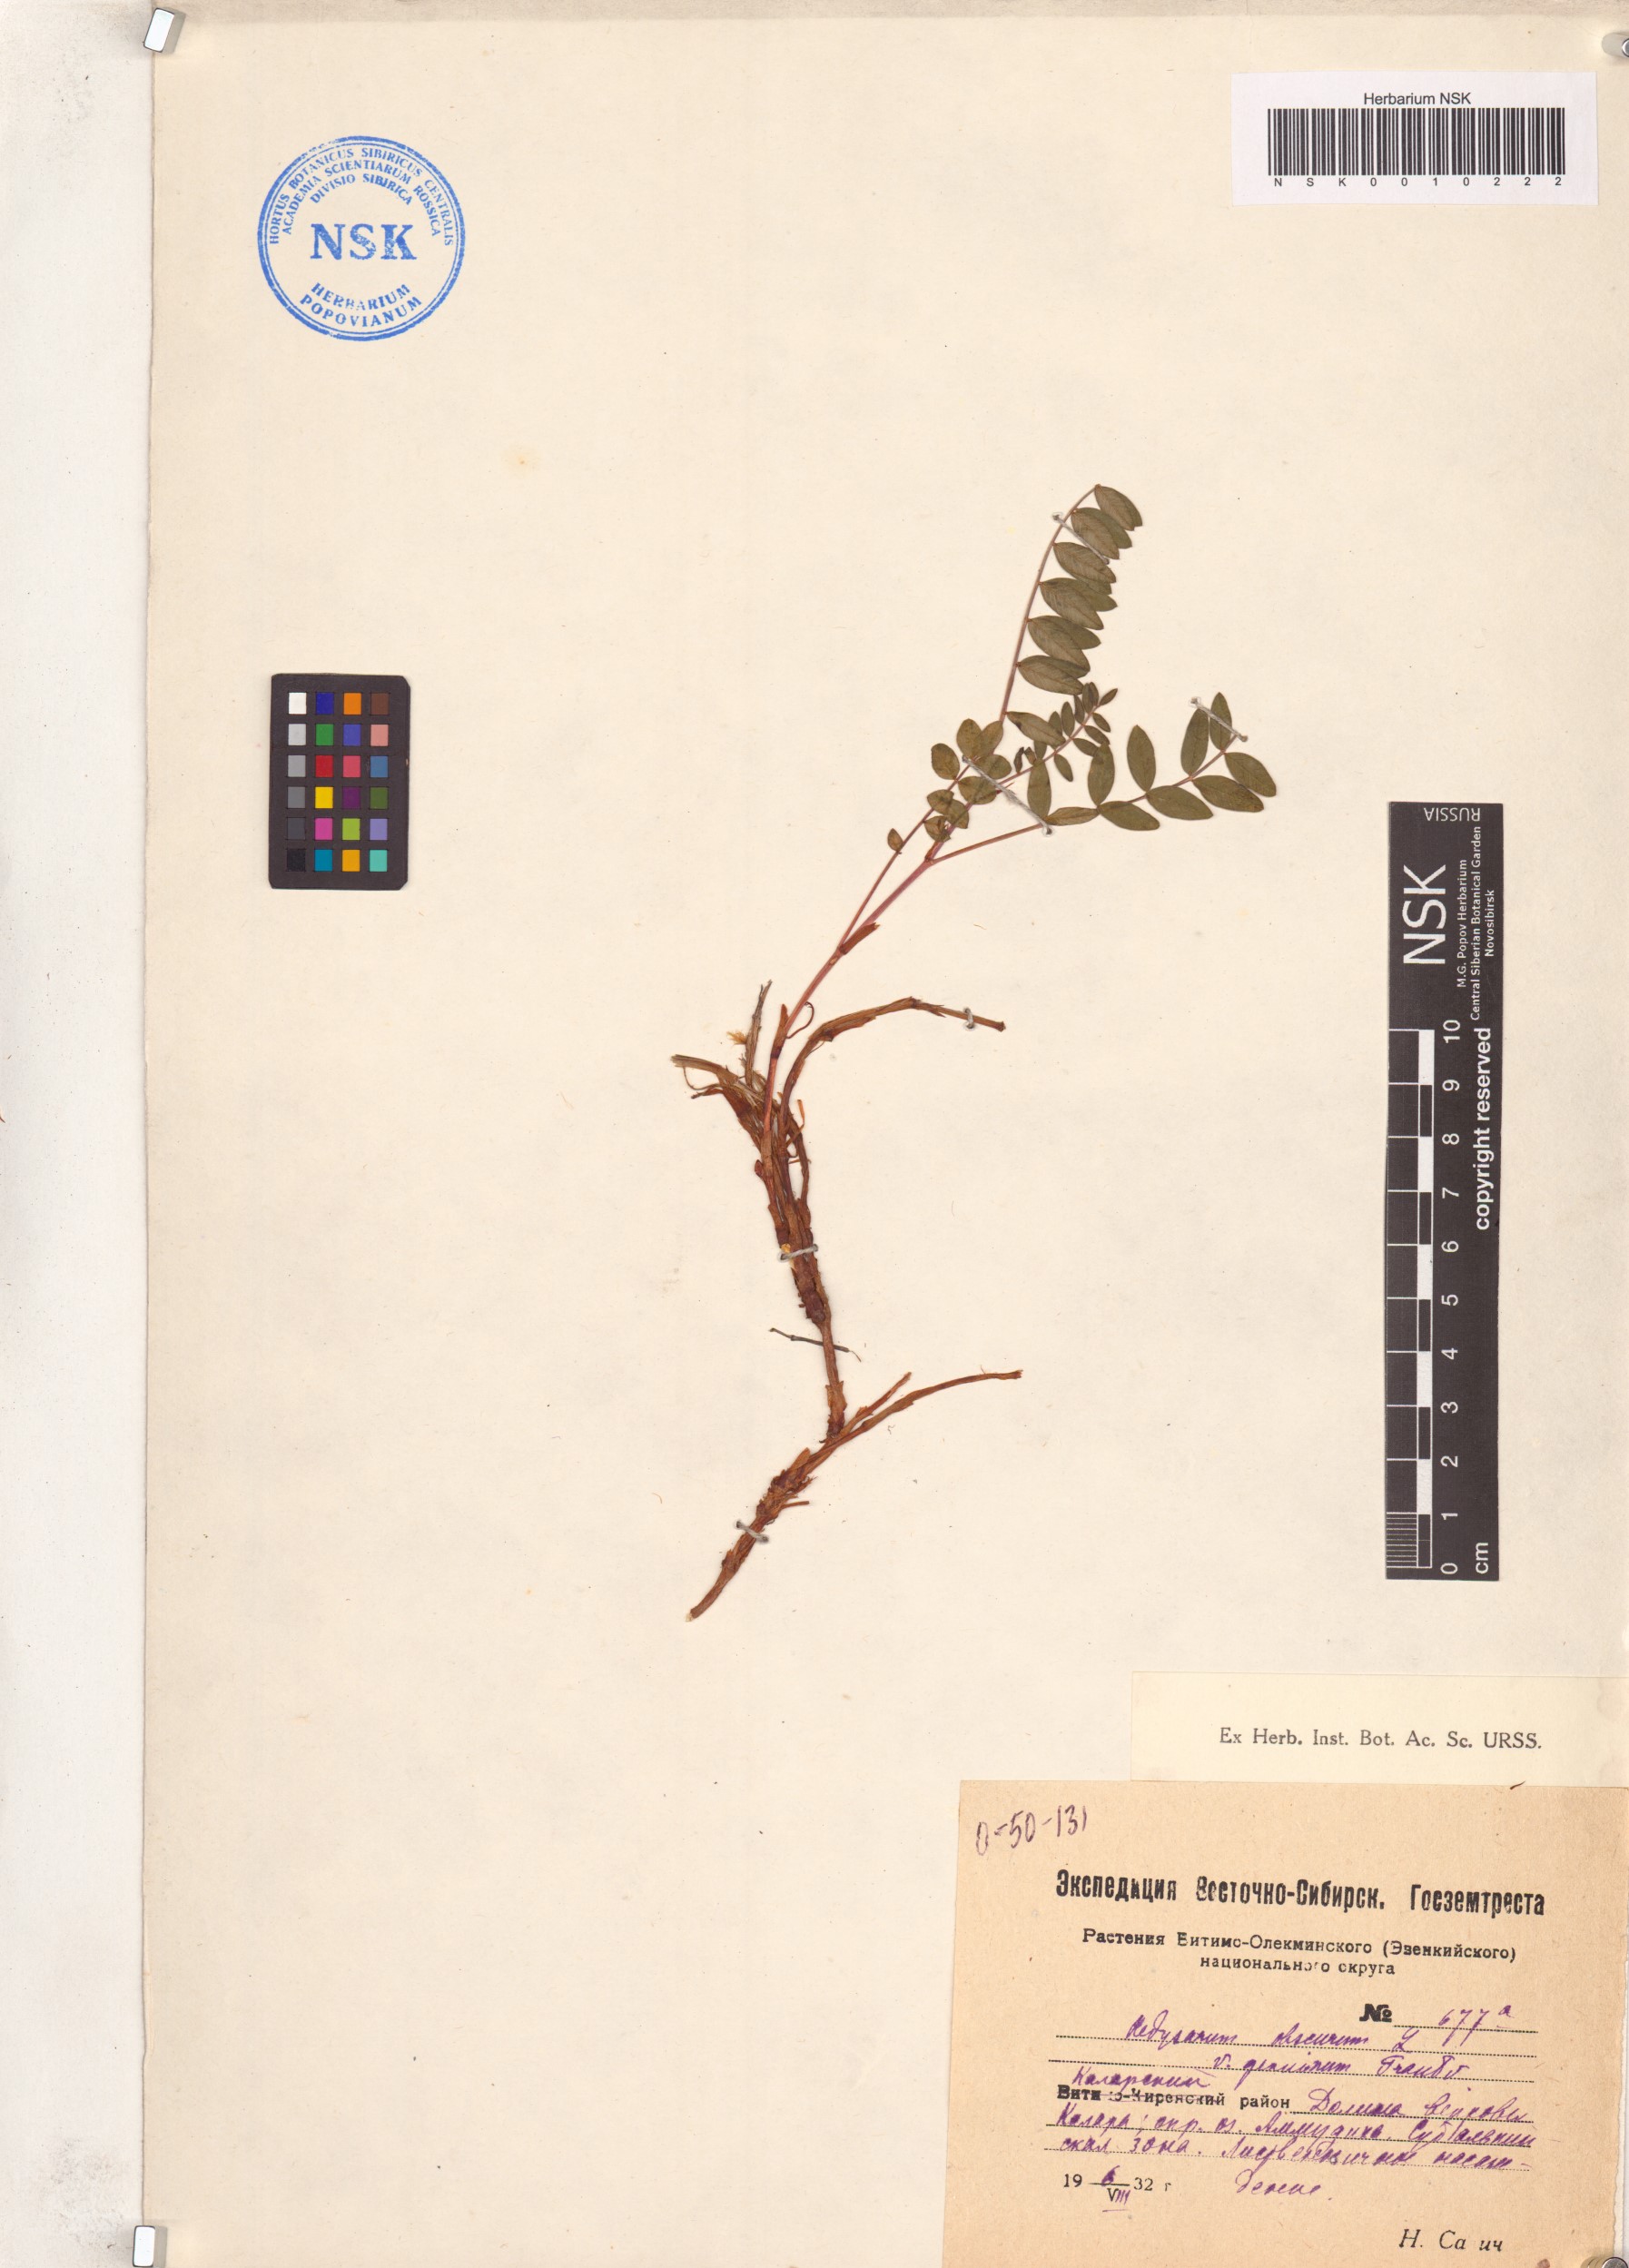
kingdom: Plantae
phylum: Tracheophyta
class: Magnoliopsida
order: Fabales
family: Fabaceae
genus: Hedysarum
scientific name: Hedysarum hedysaroides
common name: Alpine french-honeysuckle
